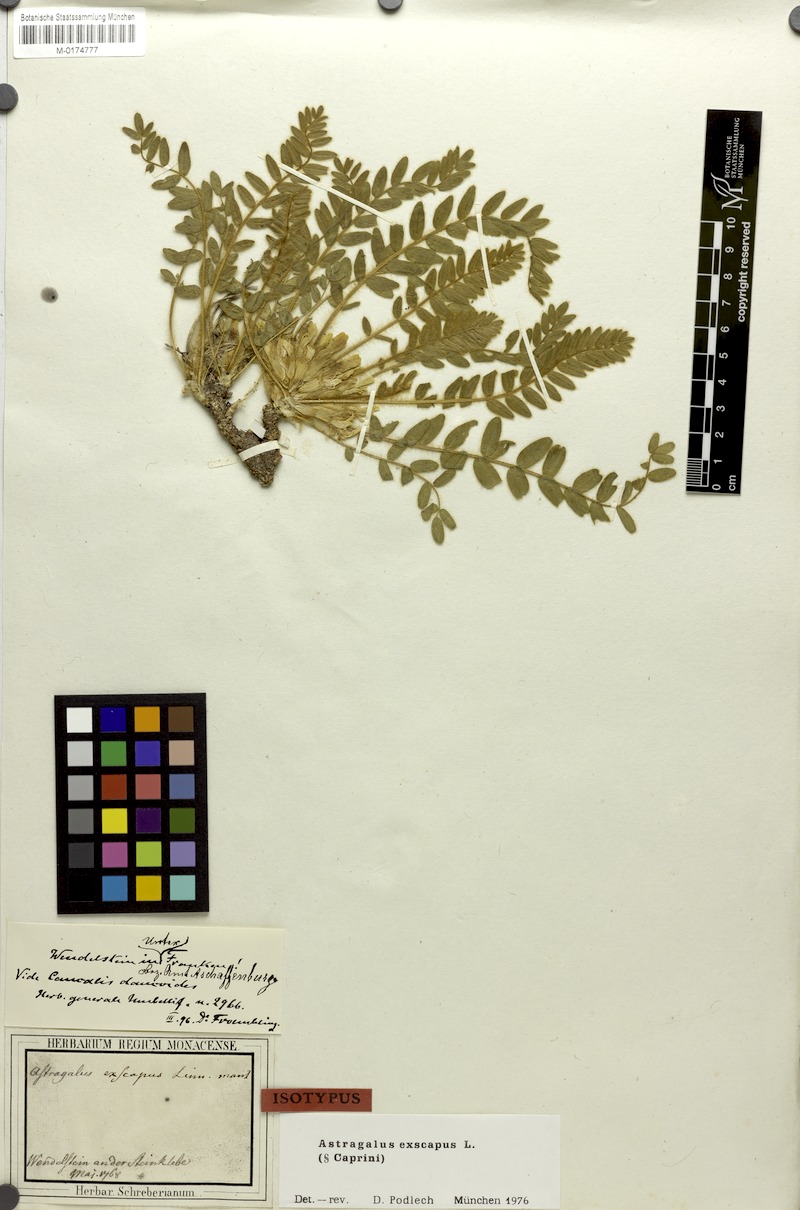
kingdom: Plantae
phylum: Tracheophyta
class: Magnoliopsida
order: Fabales
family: Fabaceae
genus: Astragalus
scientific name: Astragalus exscapus
